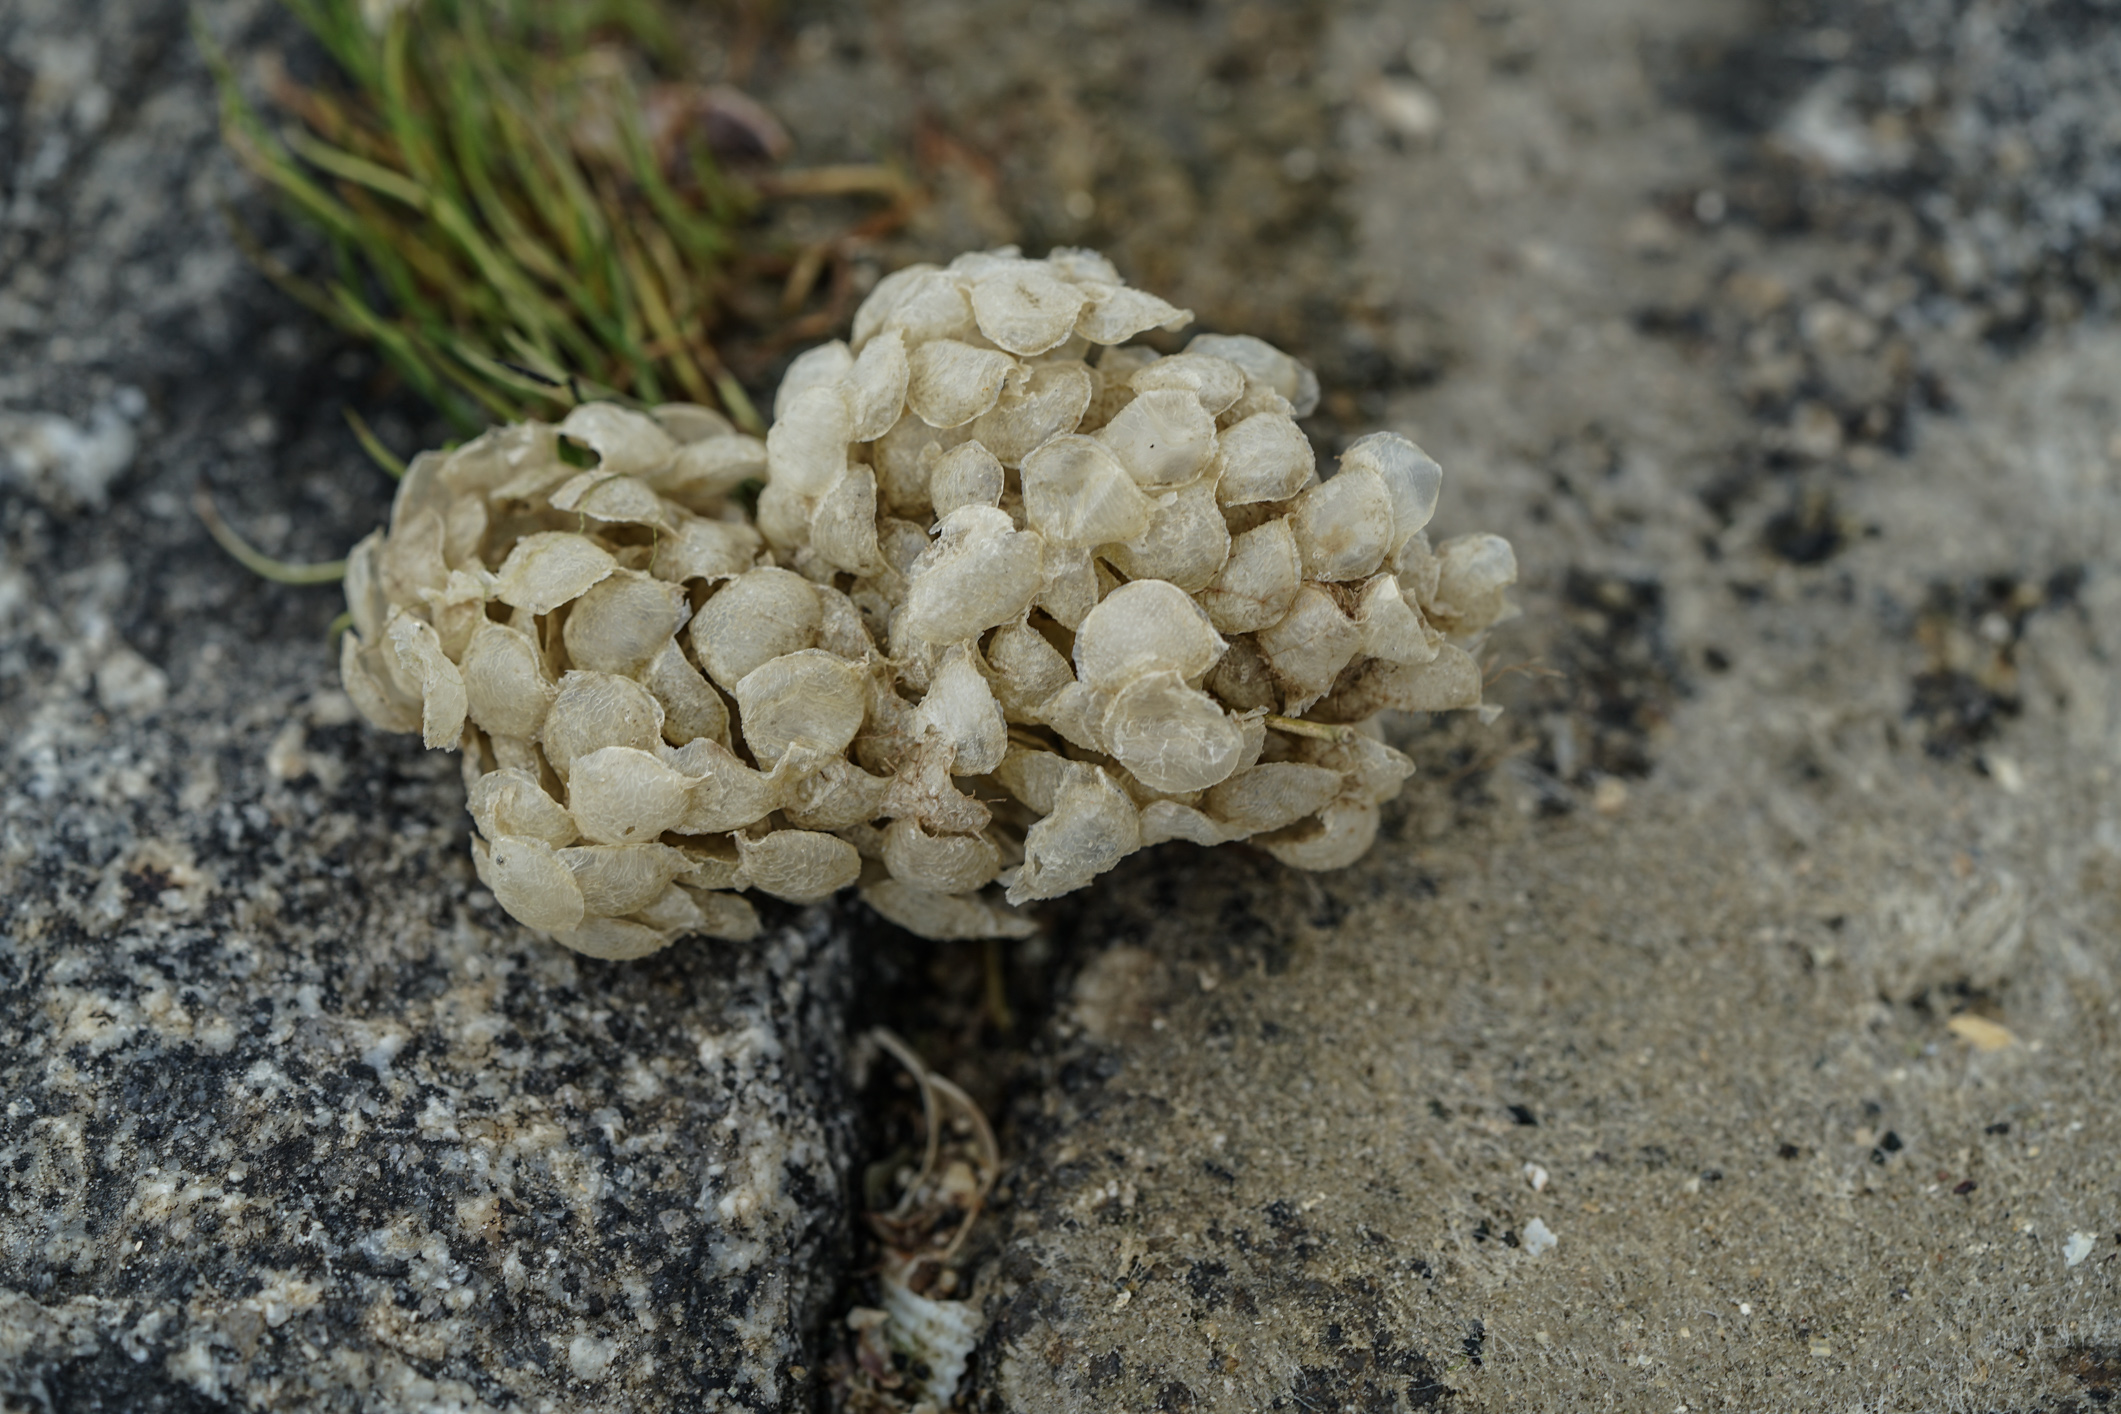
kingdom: Animalia
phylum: Mollusca
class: Gastropoda
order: Neogastropoda
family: Buccinidae
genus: Buccinum
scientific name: Buccinum undatum
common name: Common whelk
